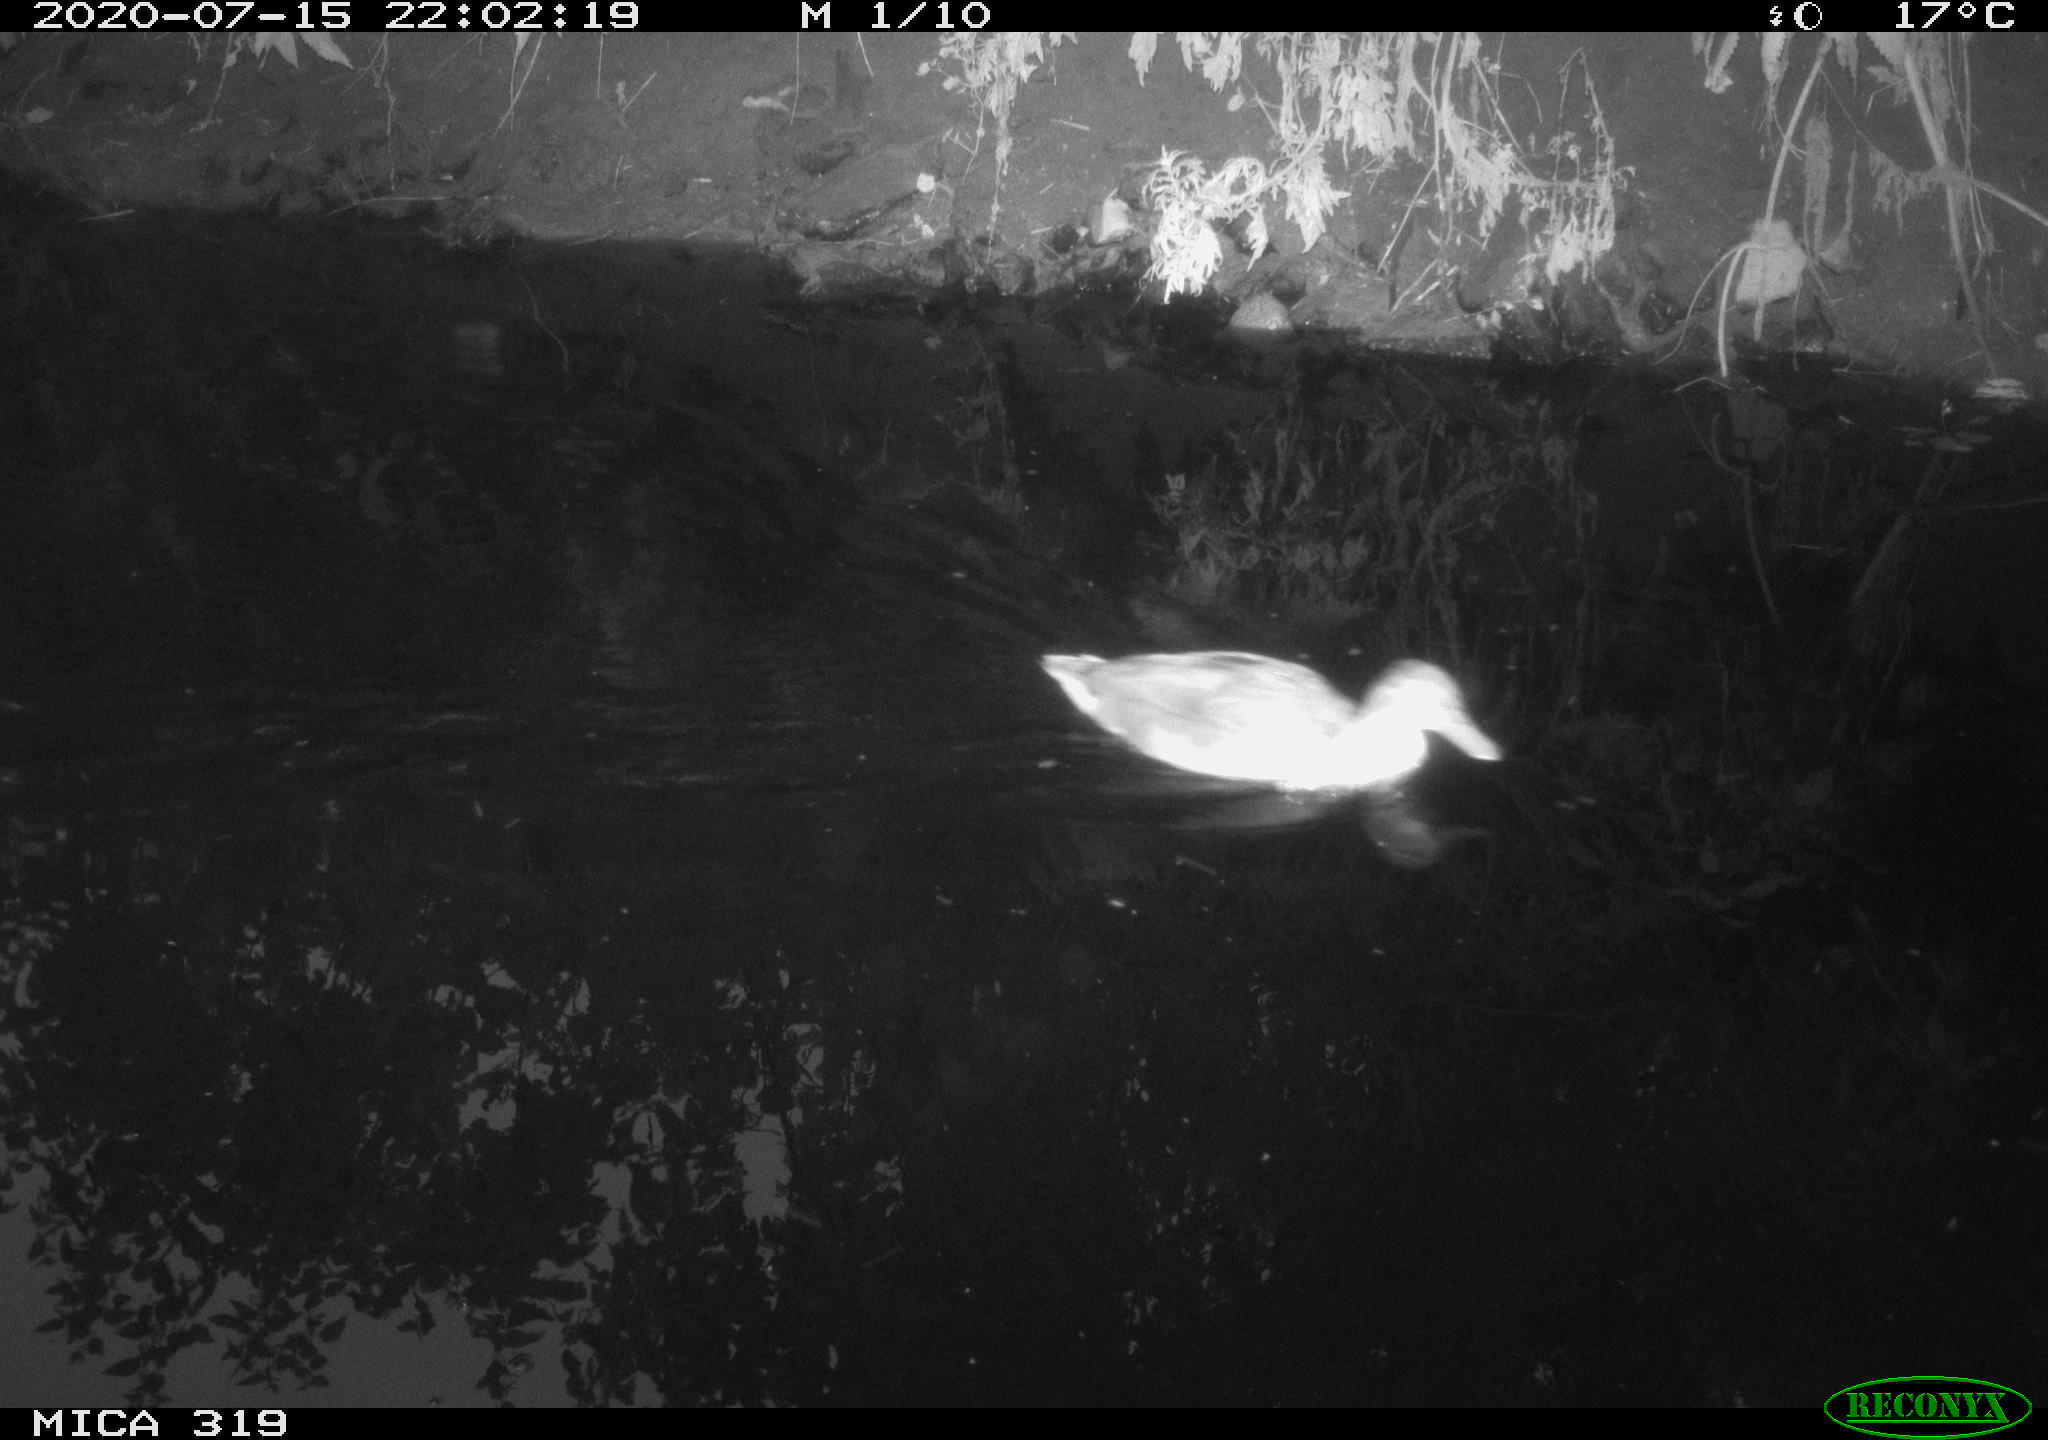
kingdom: Animalia
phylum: Chordata
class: Aves
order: Anseriformes
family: Anatidae
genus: Anas
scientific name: Anas platyrhynchos
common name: Mallard
